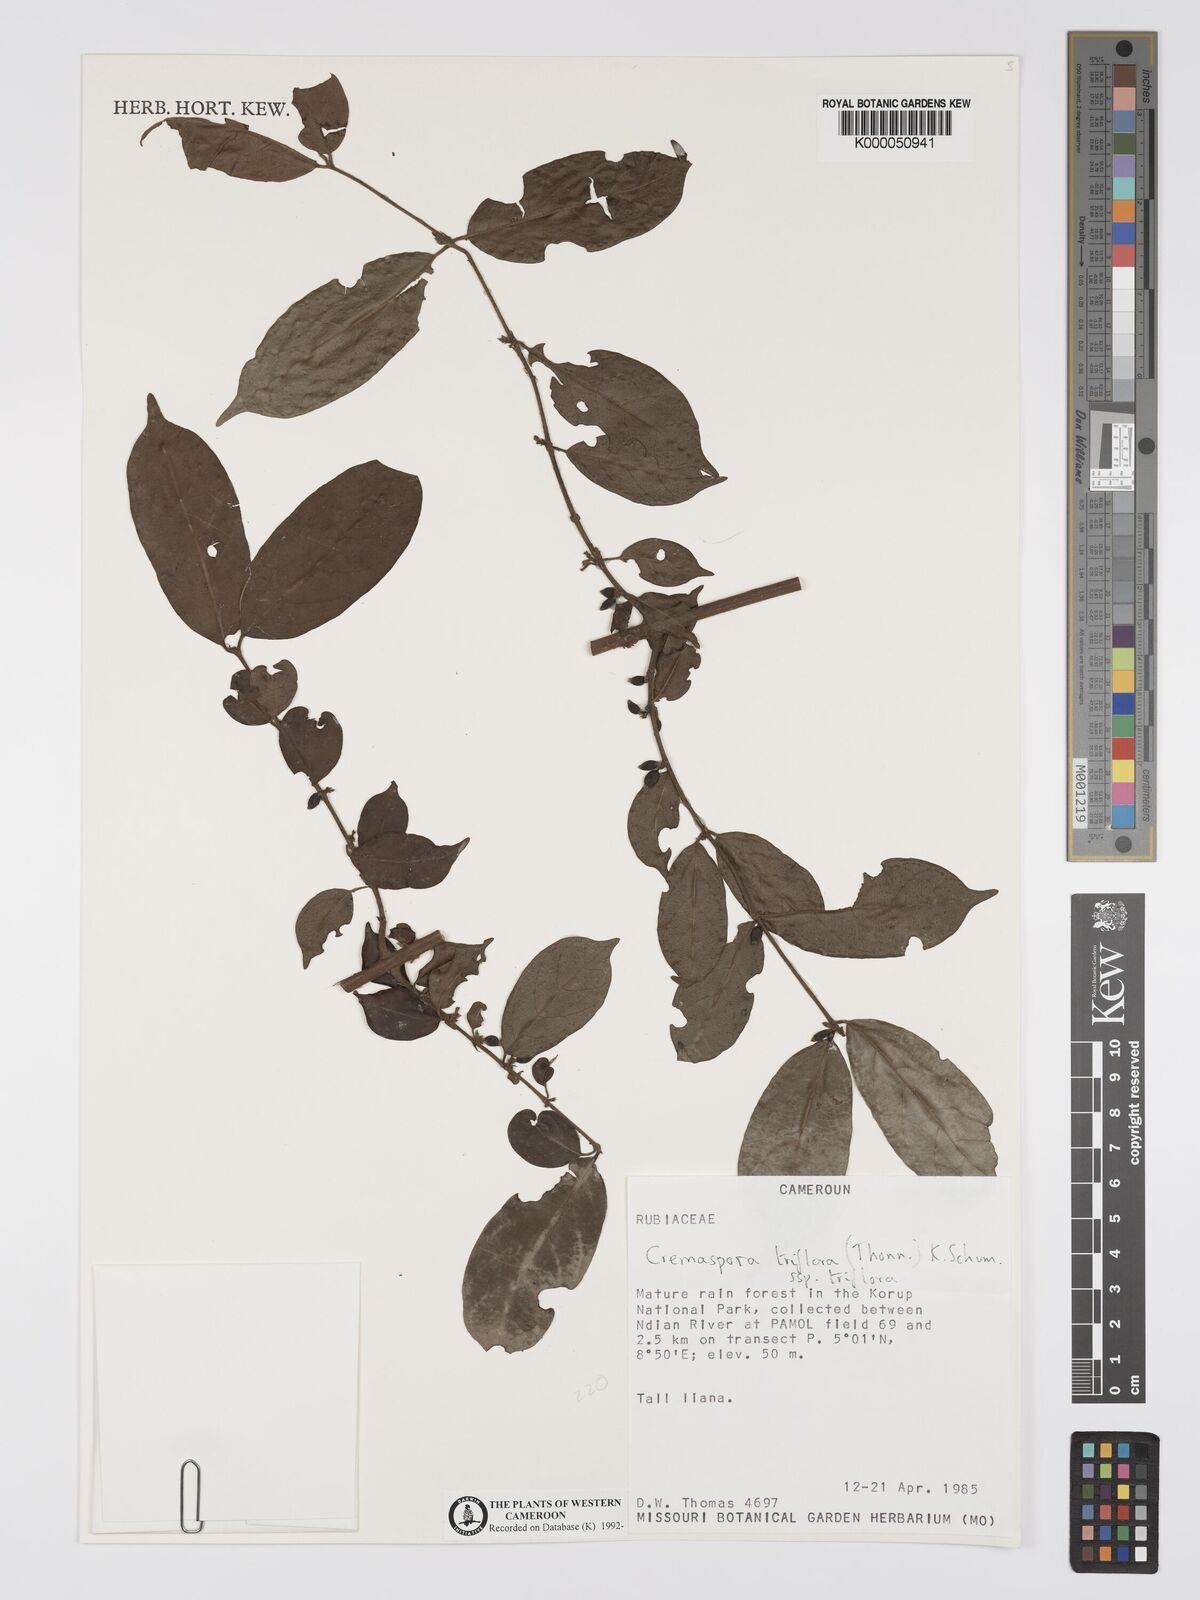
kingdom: Plantae
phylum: Tracheophyta
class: Magnoliopsida
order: Gentianales
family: Rubiaceae
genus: Cremaspora
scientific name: Cremaspora triflora
